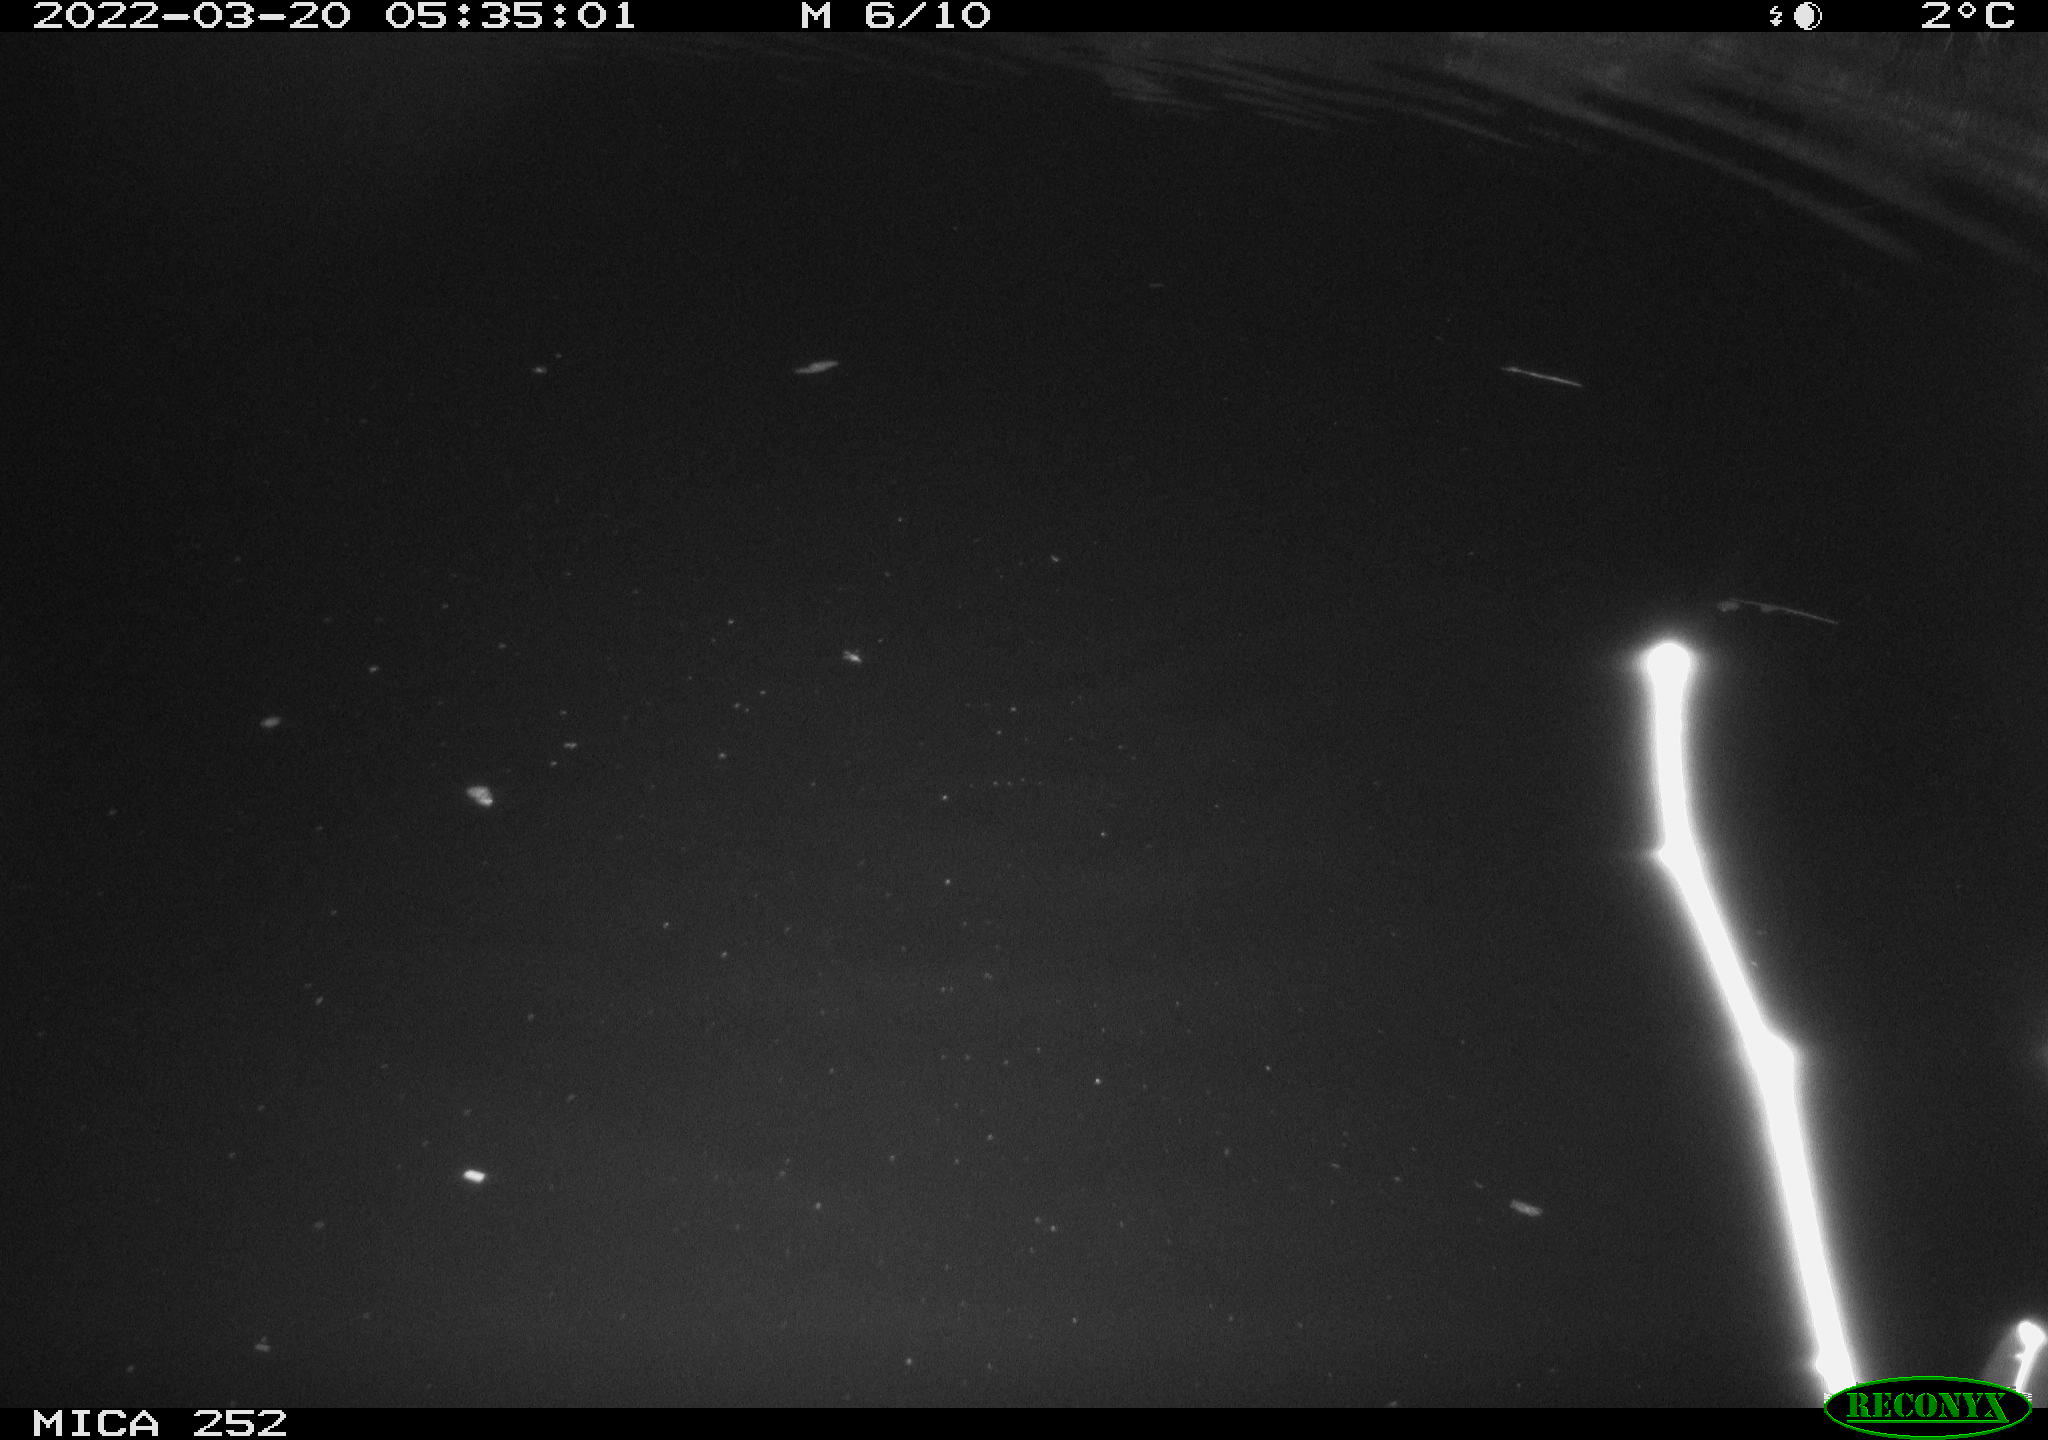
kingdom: Animalia
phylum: Chordata
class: Mammalia
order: Rodentia
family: Castoridae
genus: Castor
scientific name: Castor fiber
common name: Eurasian beaver
